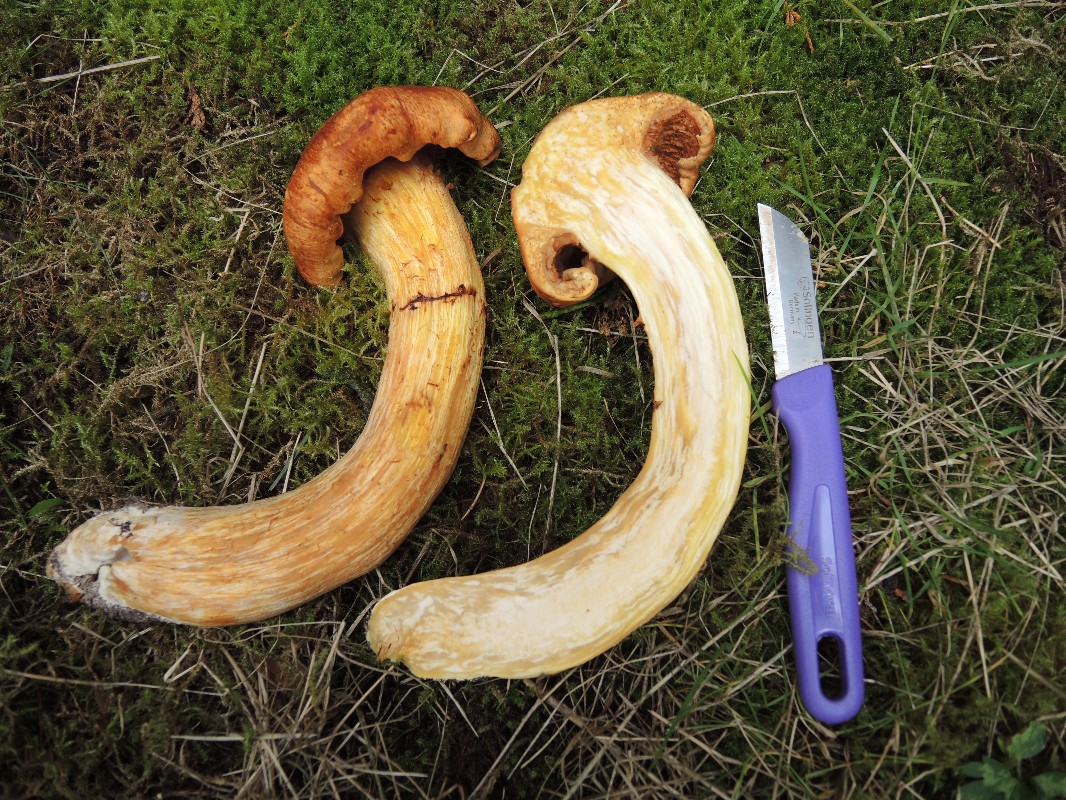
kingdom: Fungi
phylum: Basidiomycota
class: Agaricomycetes
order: Agaricales
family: Hymenogastraceae
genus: Gymnopilus
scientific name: Gymnopilus spectabilis
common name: fibret flammehat
